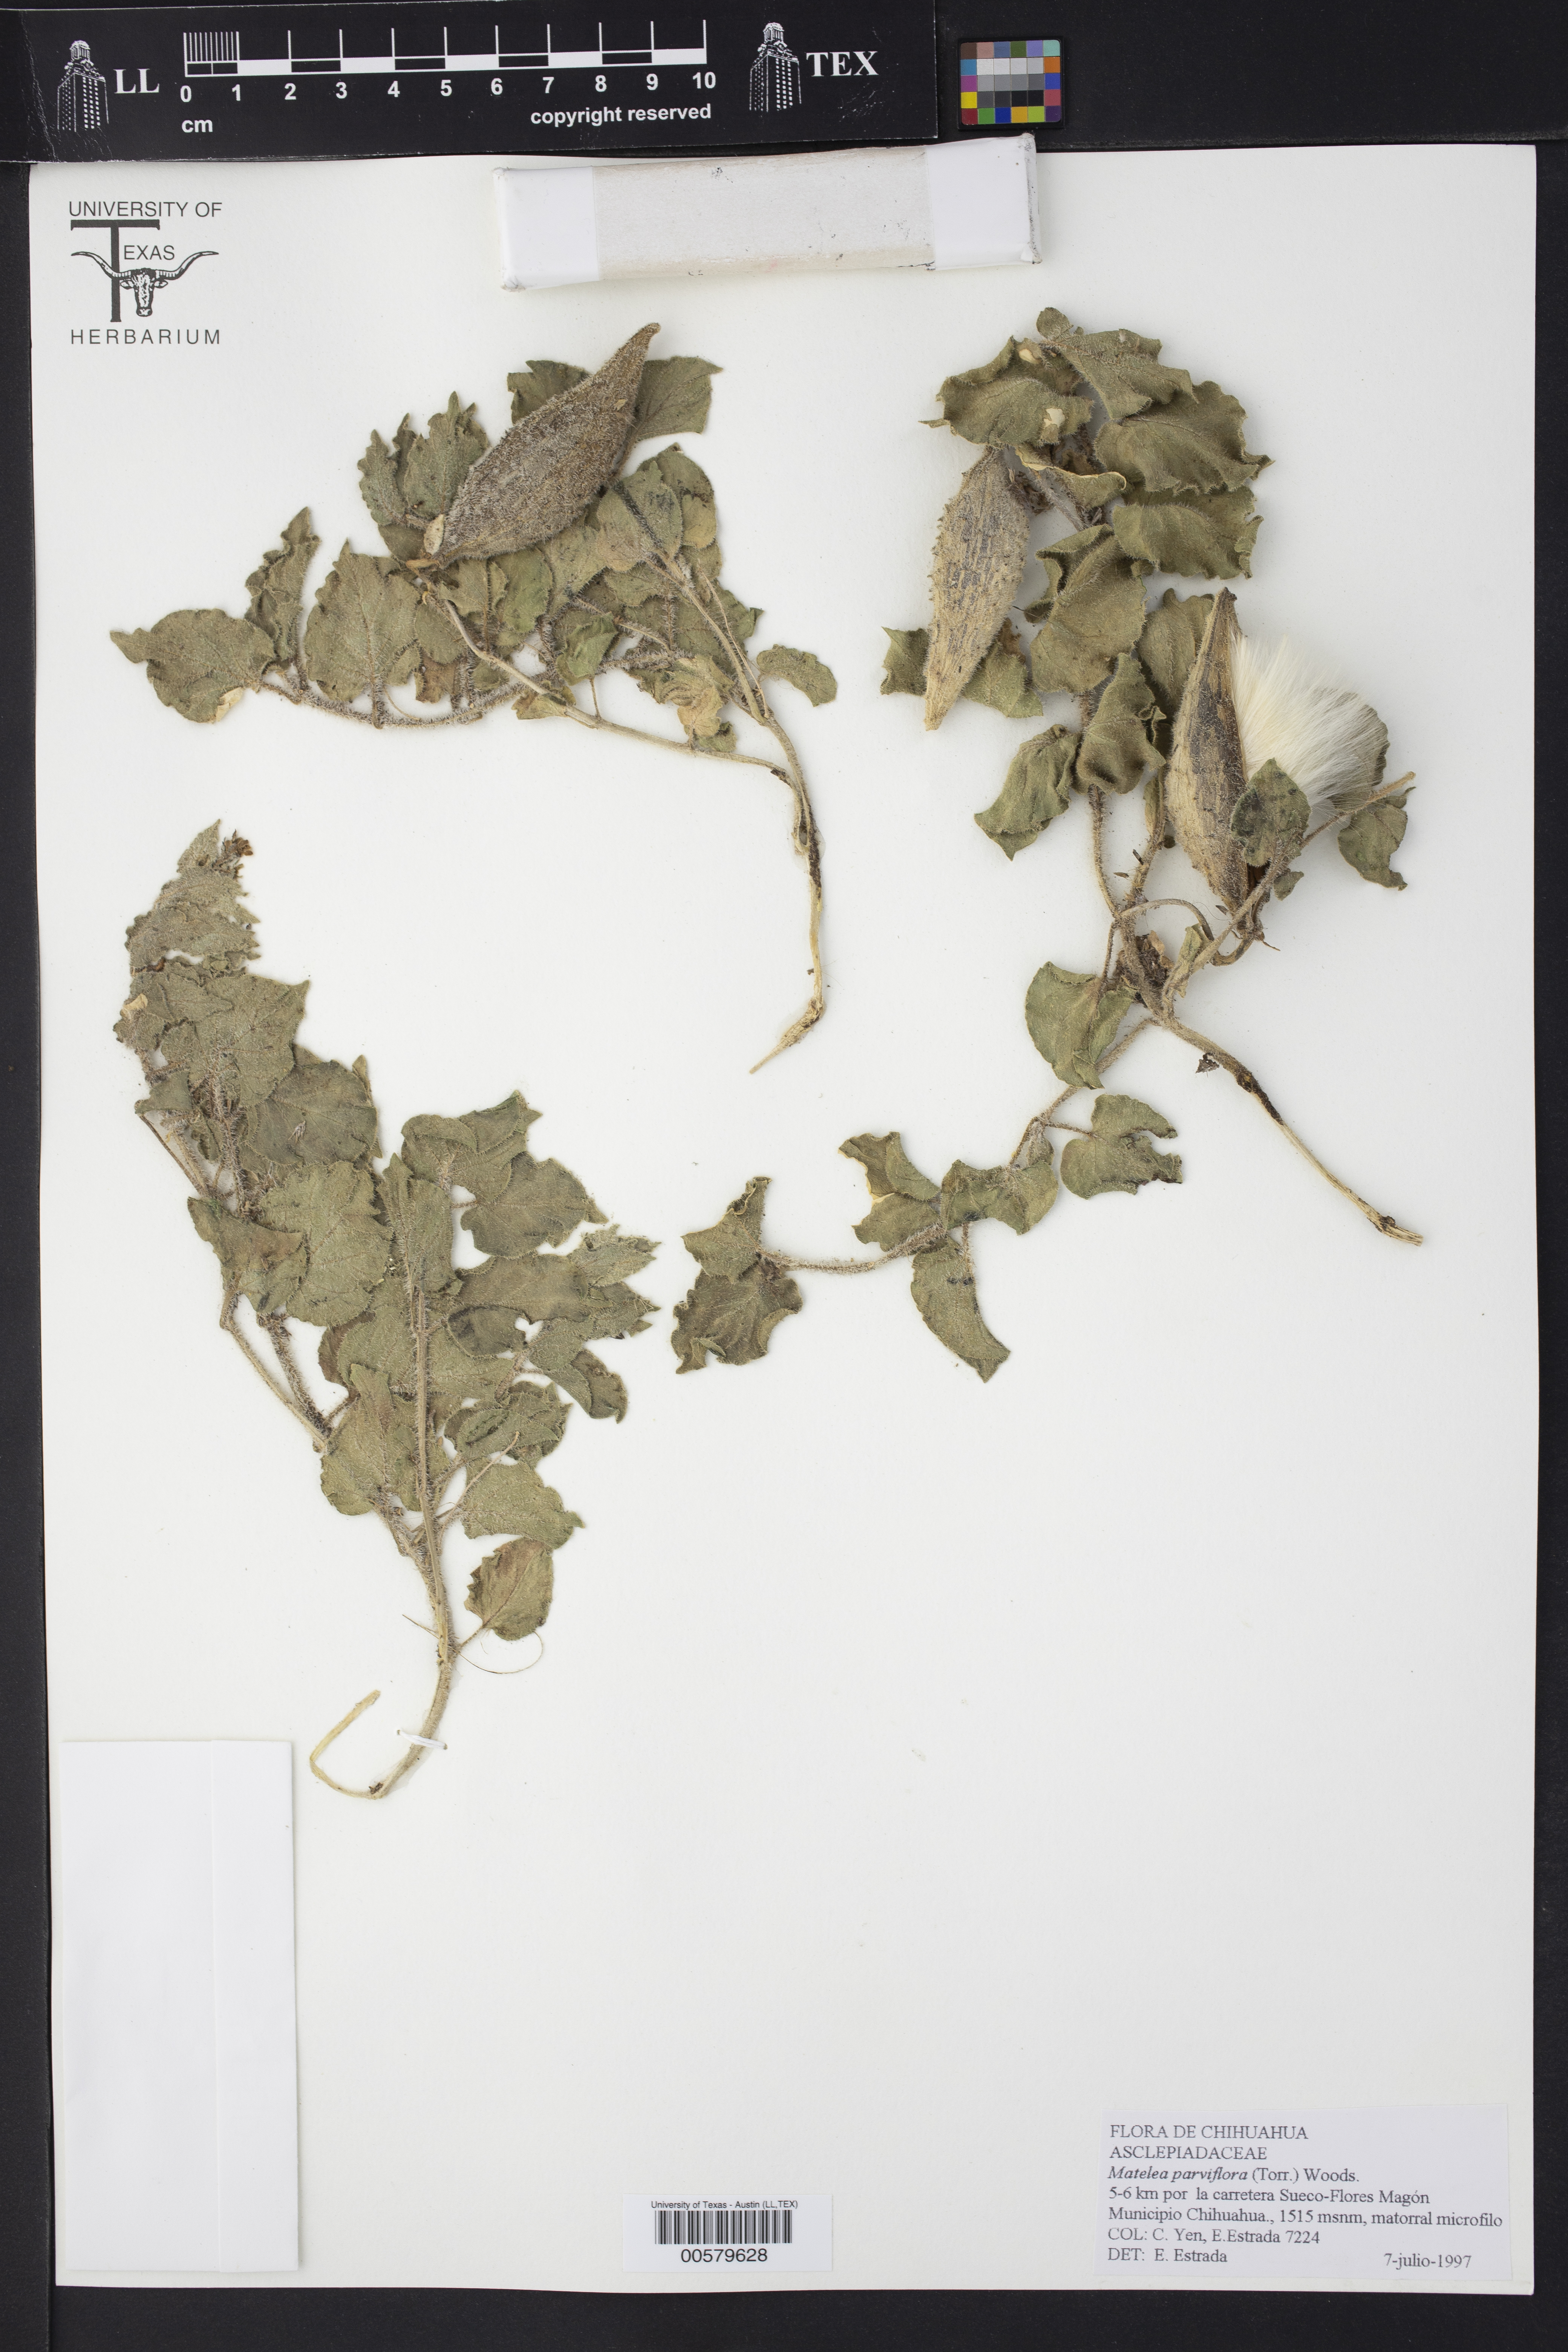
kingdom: Plantae
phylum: Tracheophyta
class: Magnoliopsida
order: Gentianales
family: Apocynaceae
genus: Chthamalia
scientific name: Chthamalia parviflora
